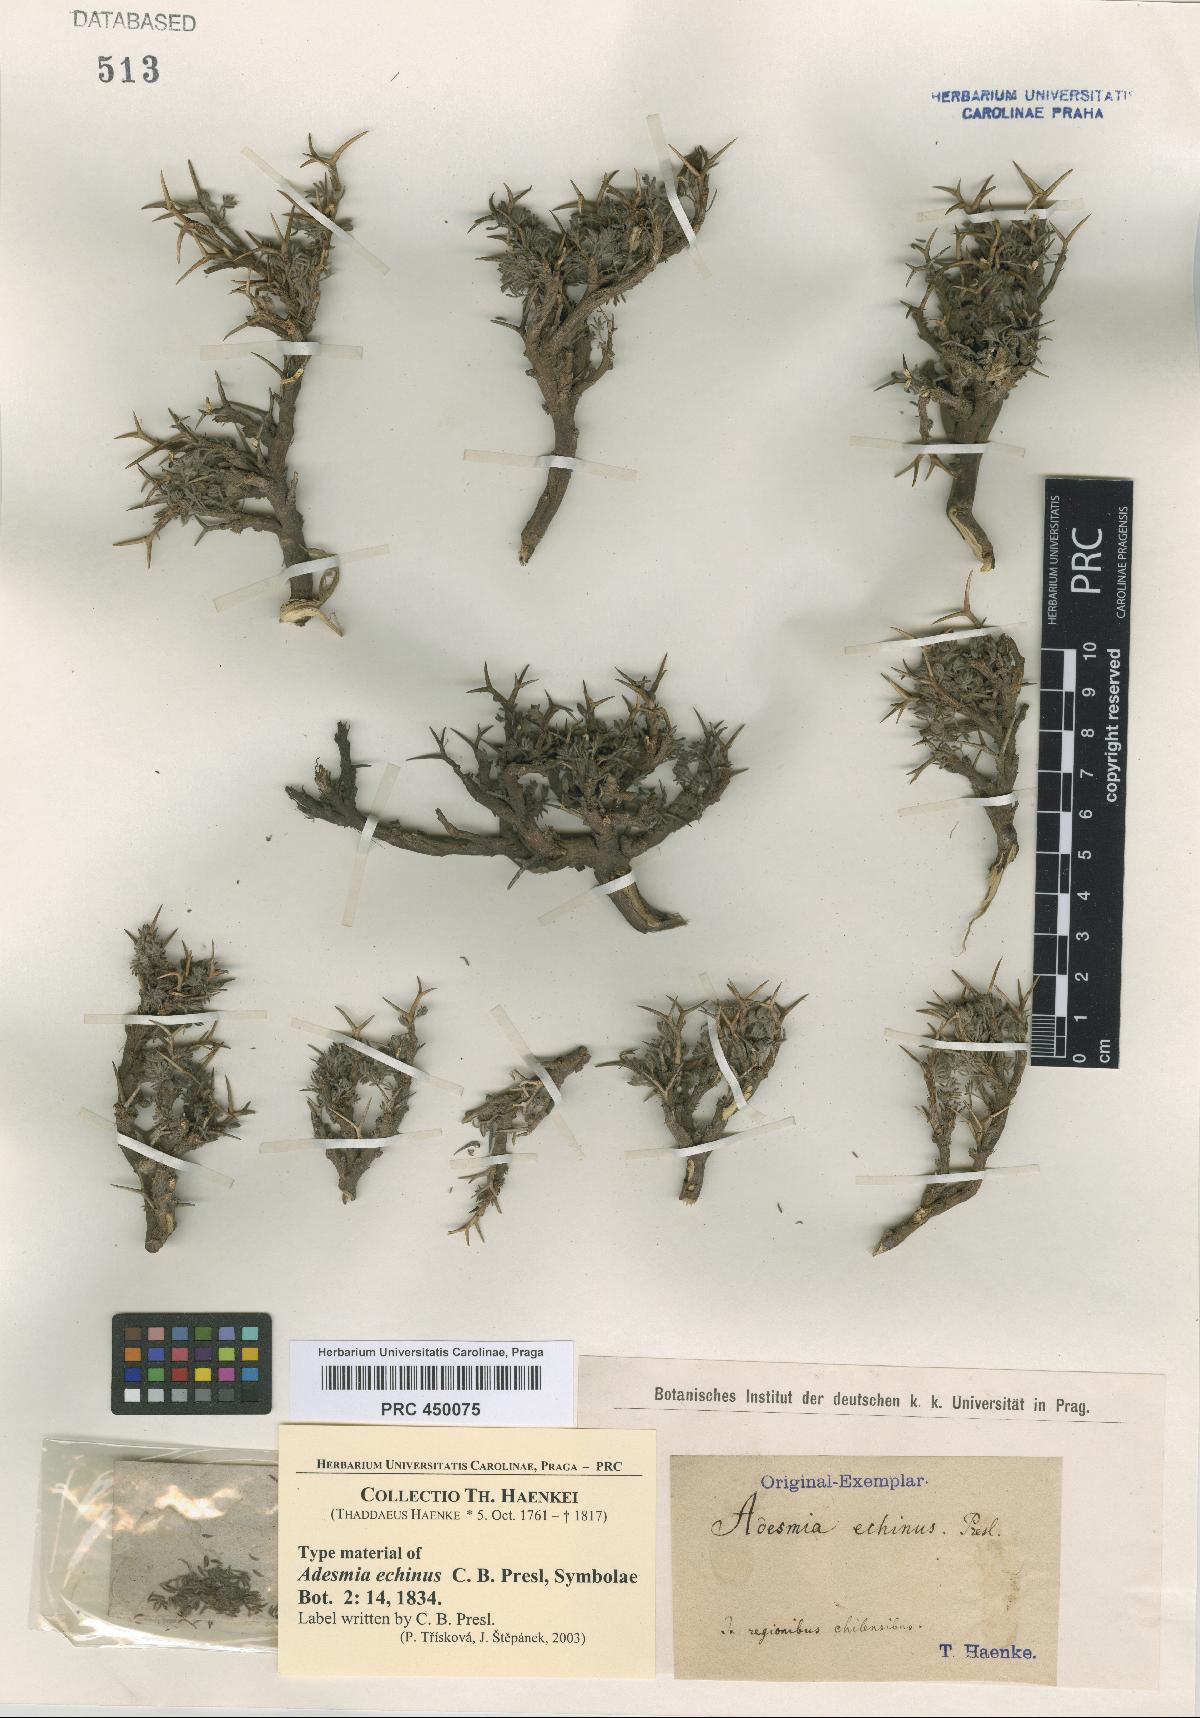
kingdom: Plantae
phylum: Tracheophyta
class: Magnoliopsida
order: Fabales
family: Fabaceae
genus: Adesmia
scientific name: Adesmia echinus
